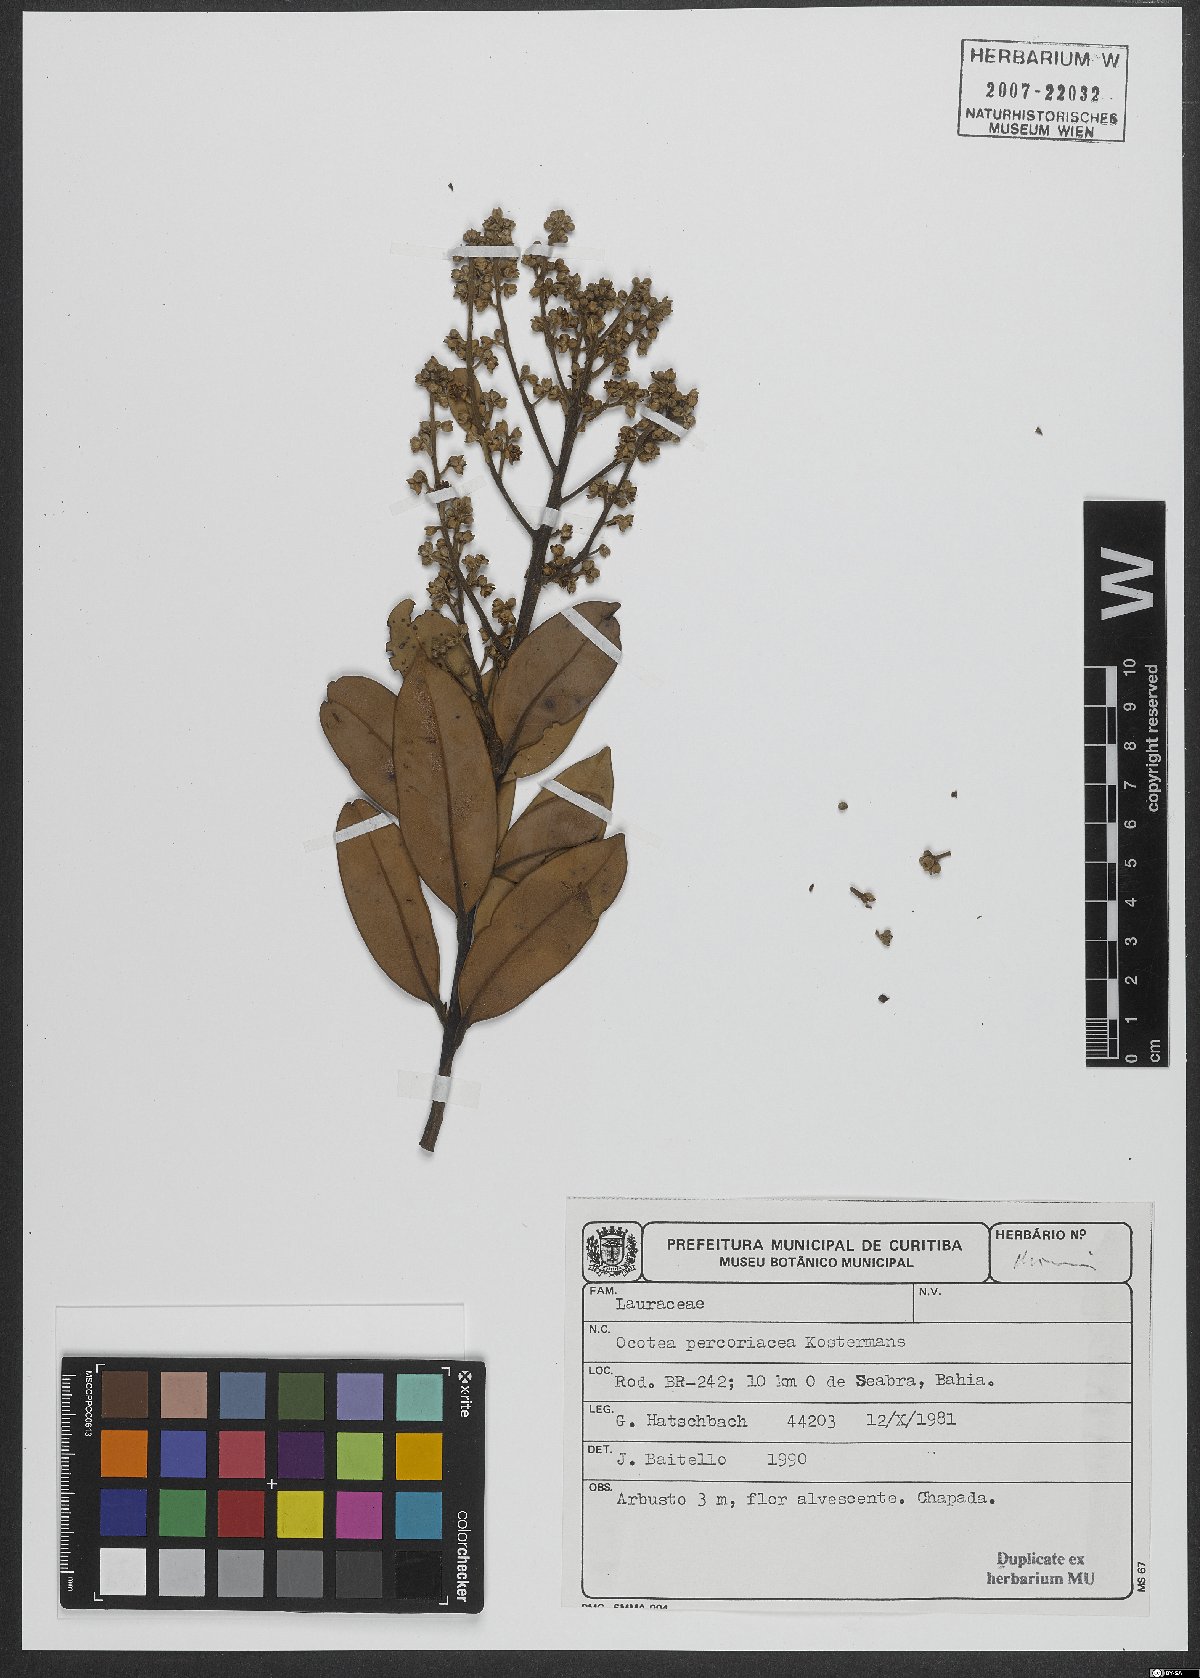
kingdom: Plantae
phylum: Tracheophyta
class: Magnoliopsida
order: Laurales
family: Lauraceae
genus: Ocotea
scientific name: Ocotea percoriacea
